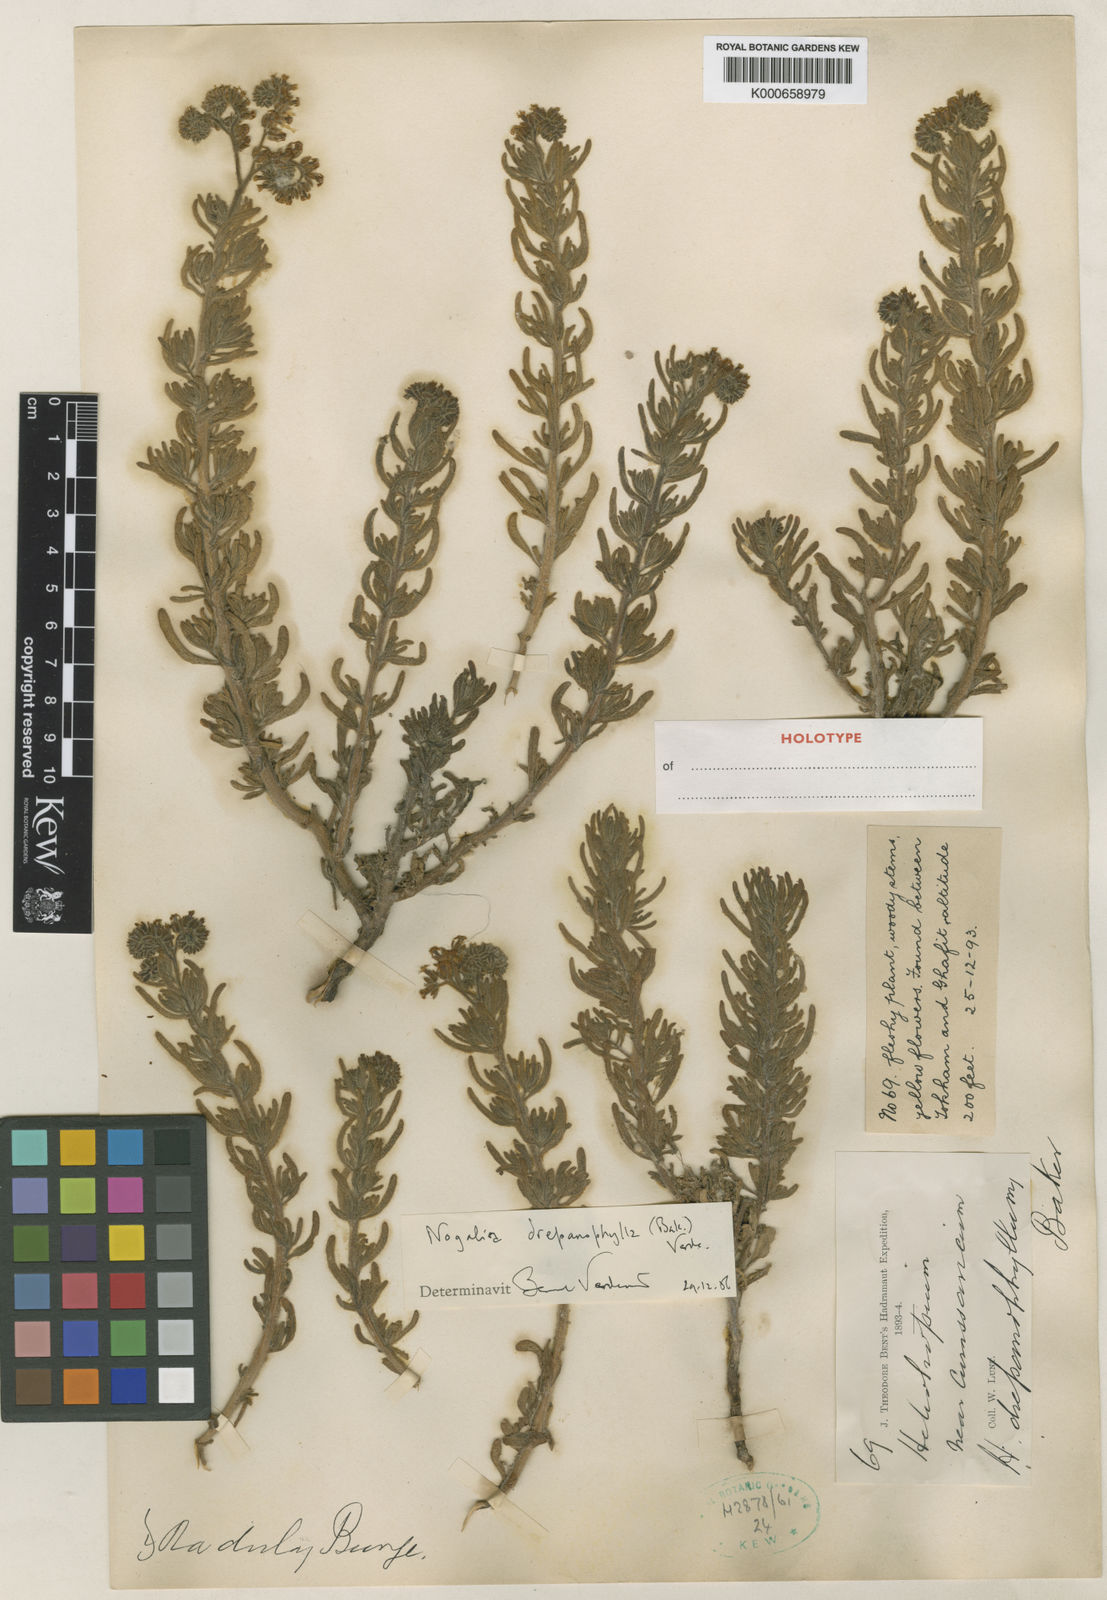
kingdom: Plantae
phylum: Tracheophyta
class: Magnoliopsida
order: Boraginales
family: Heliotropiaceae
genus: Heliotropium
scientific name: Heliotropium drepanophyllum
